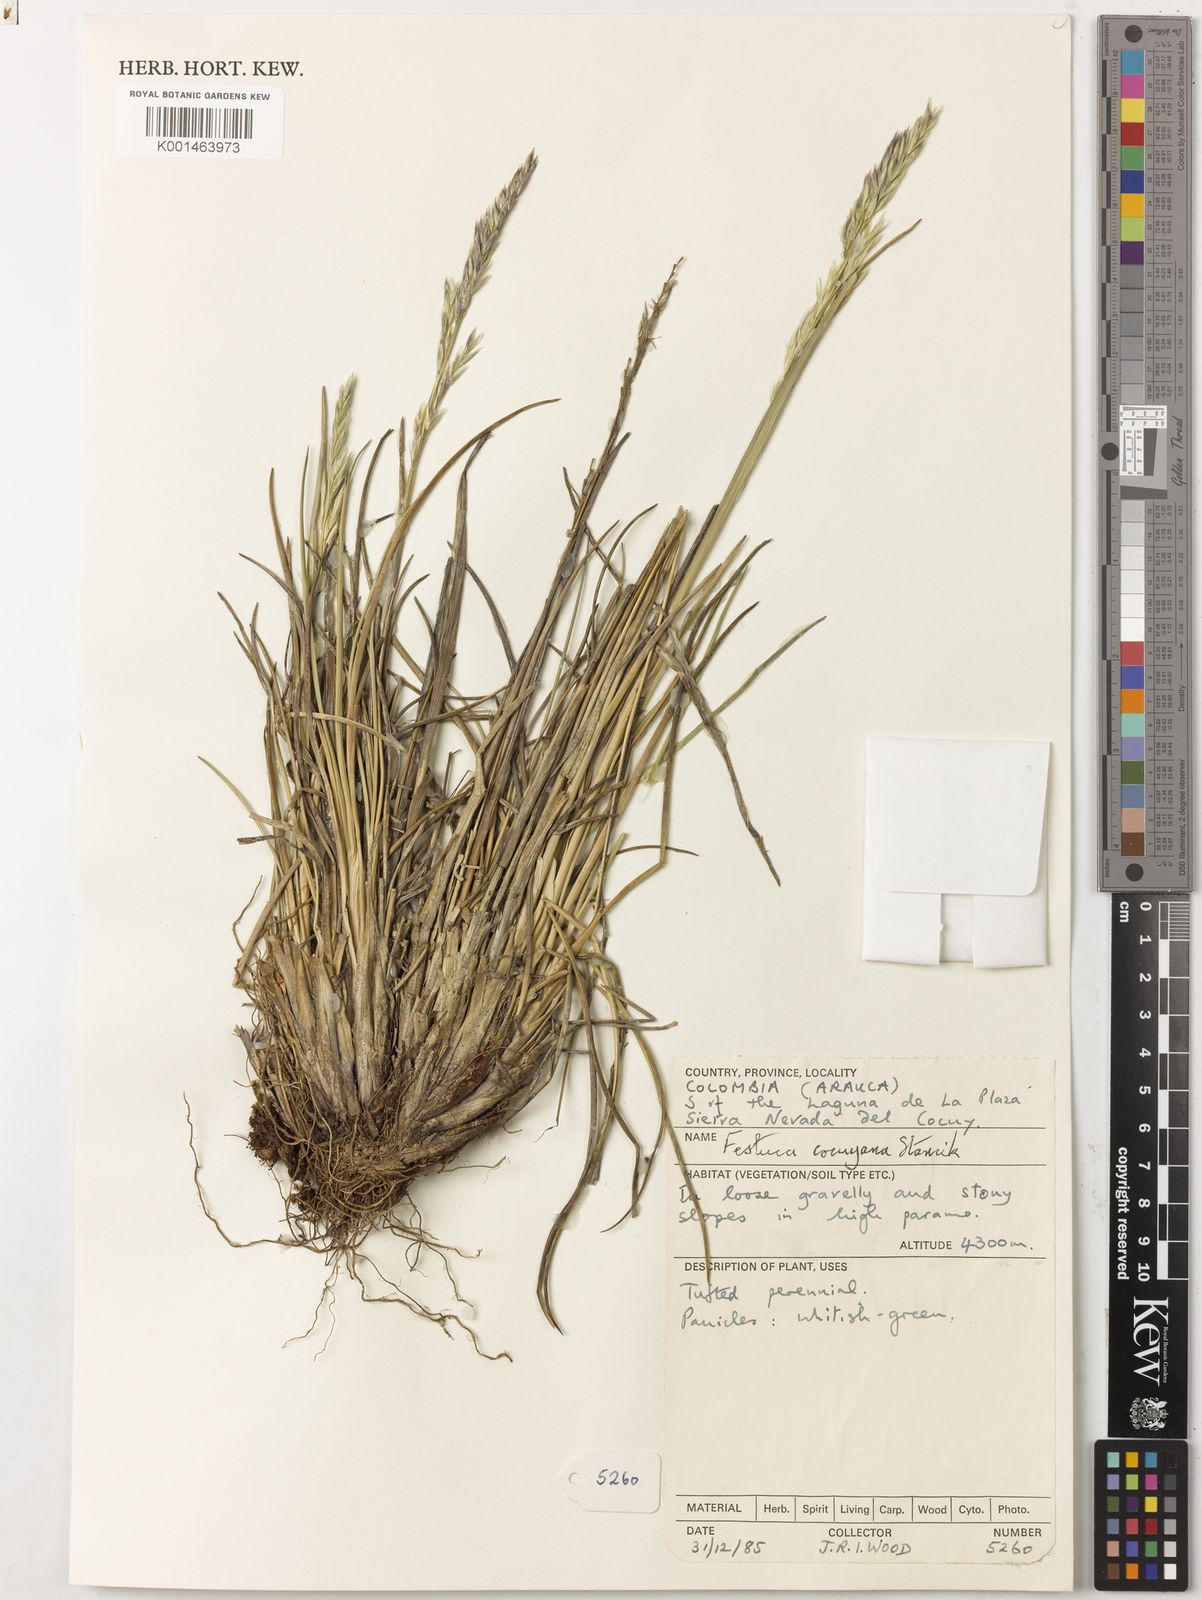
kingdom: Plantae
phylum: Tracheophyta
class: Liliopsida
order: Poales
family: Poaceae
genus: Festuca
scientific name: Festuca
